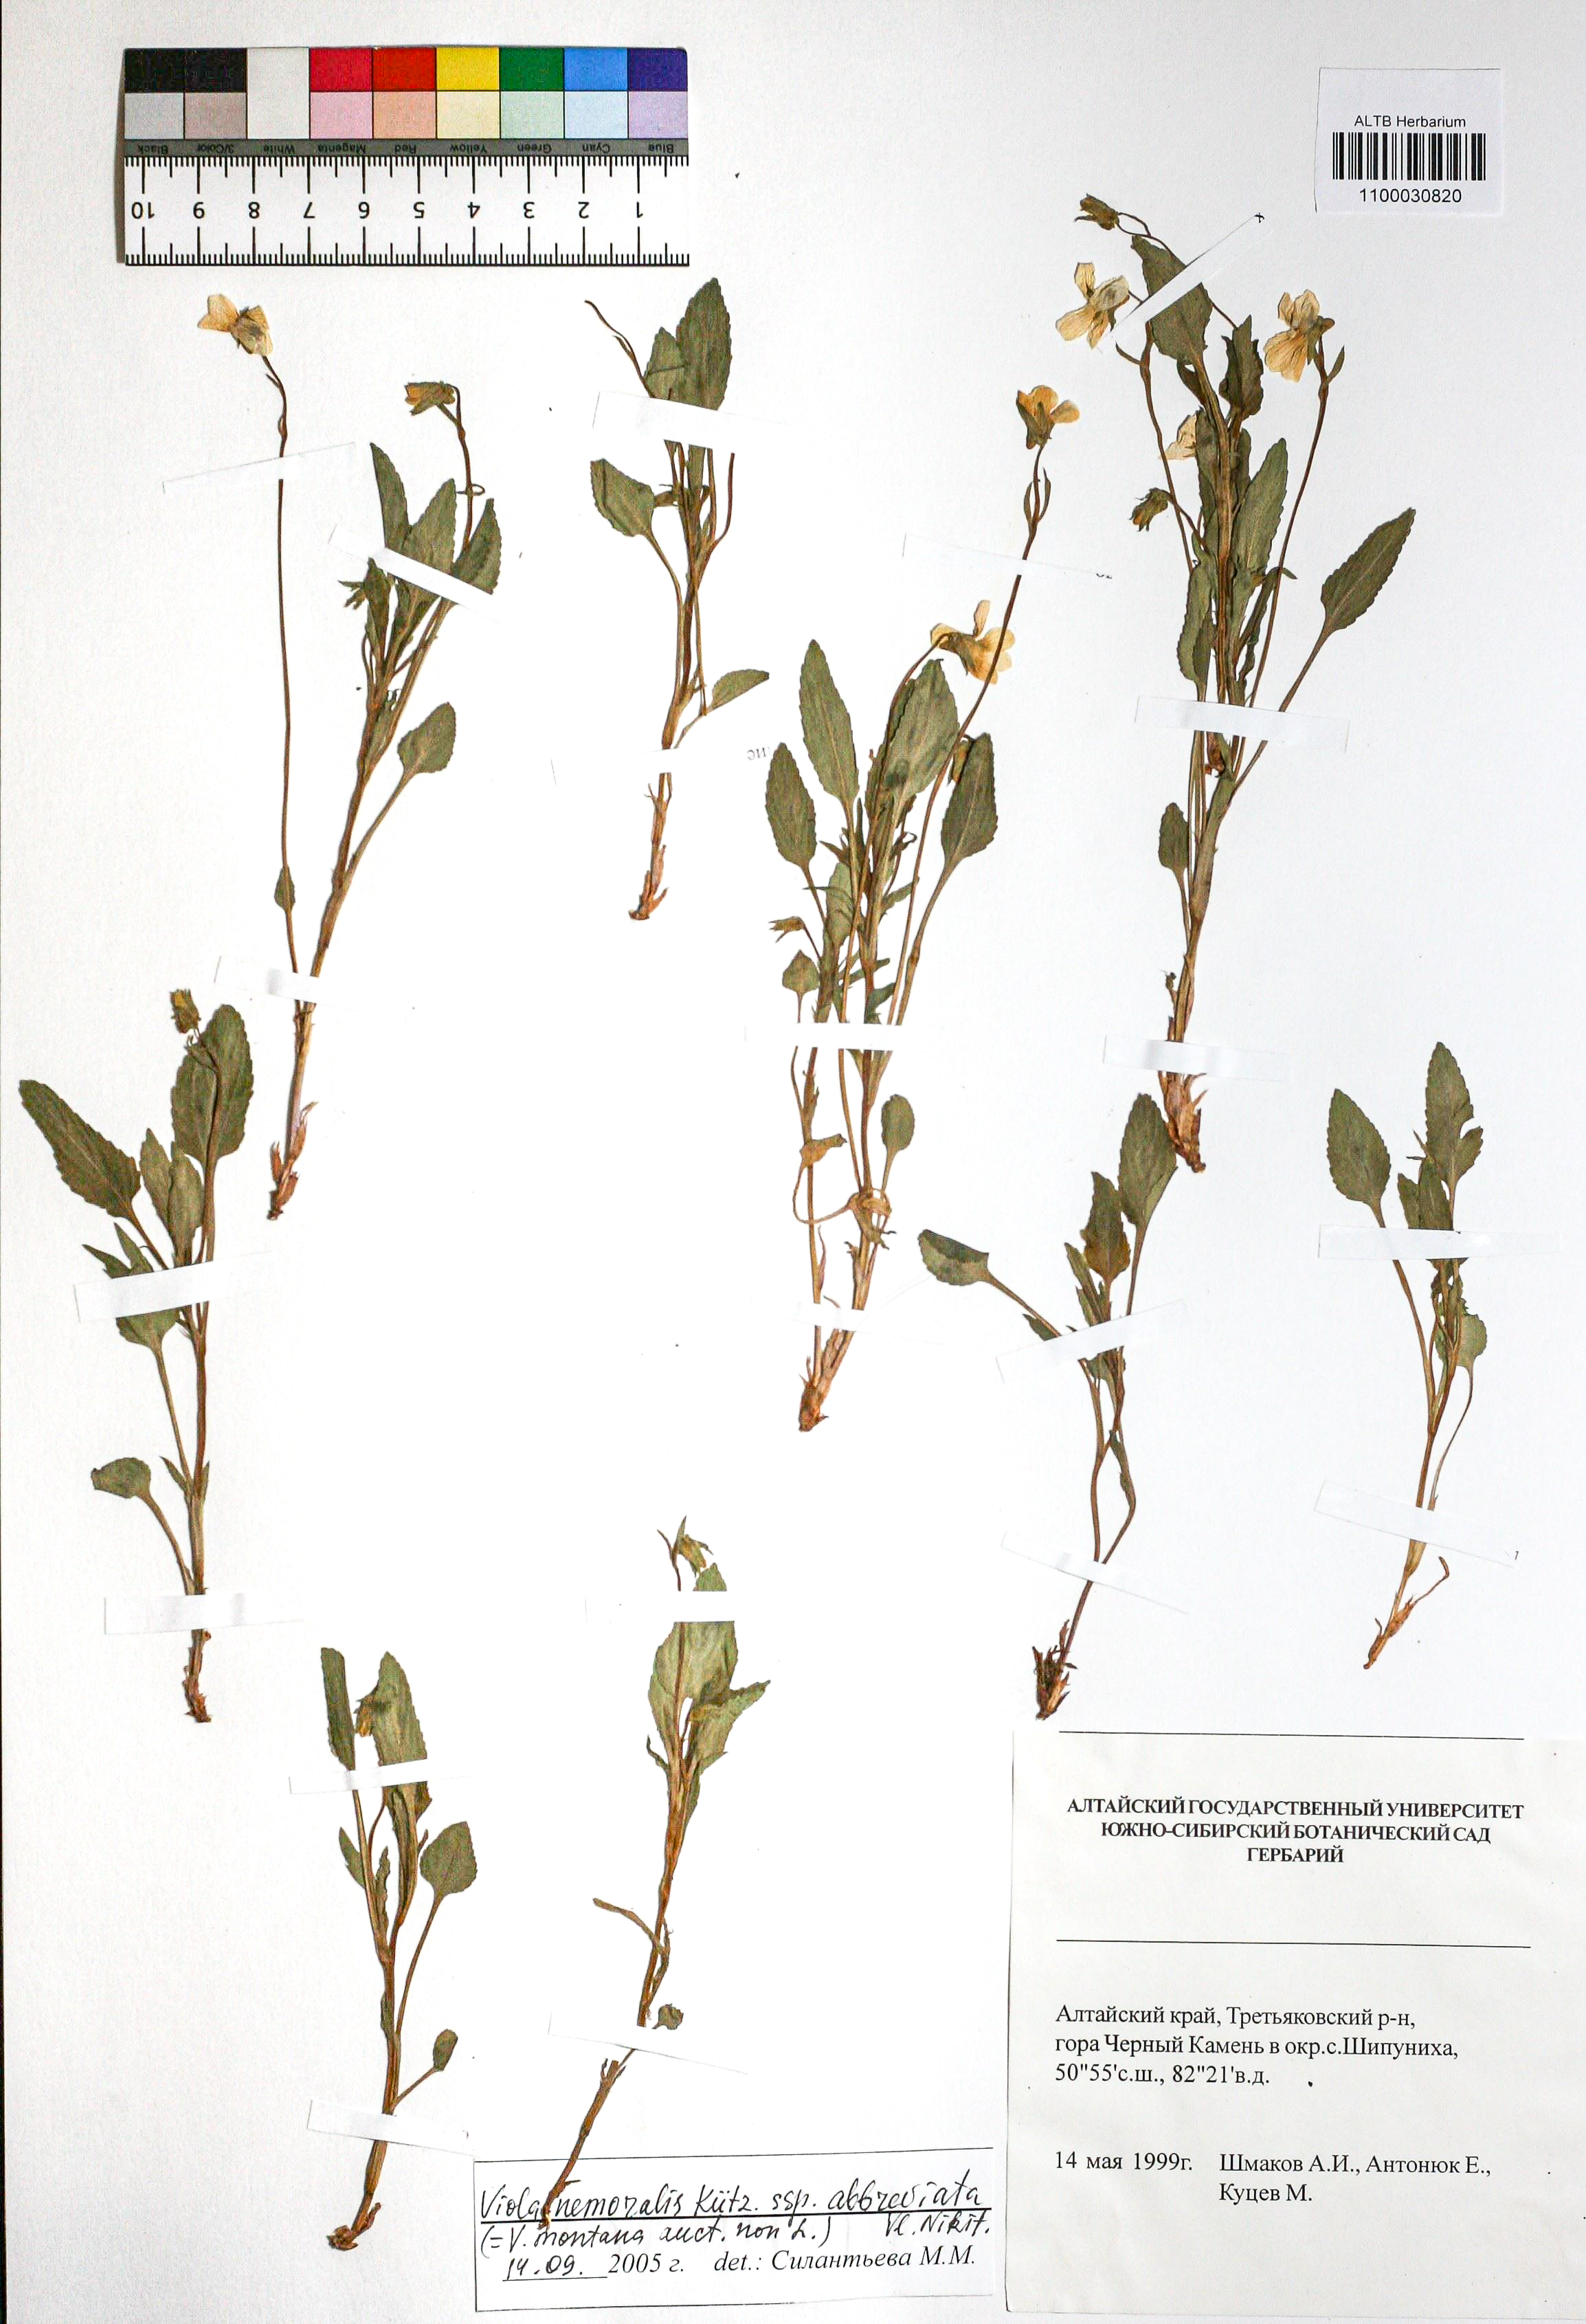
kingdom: Plantae
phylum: Tracheophyta
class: Magnoliopsida
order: Malpighiales
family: Violaceae
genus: Viola
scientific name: Viola ruppii
